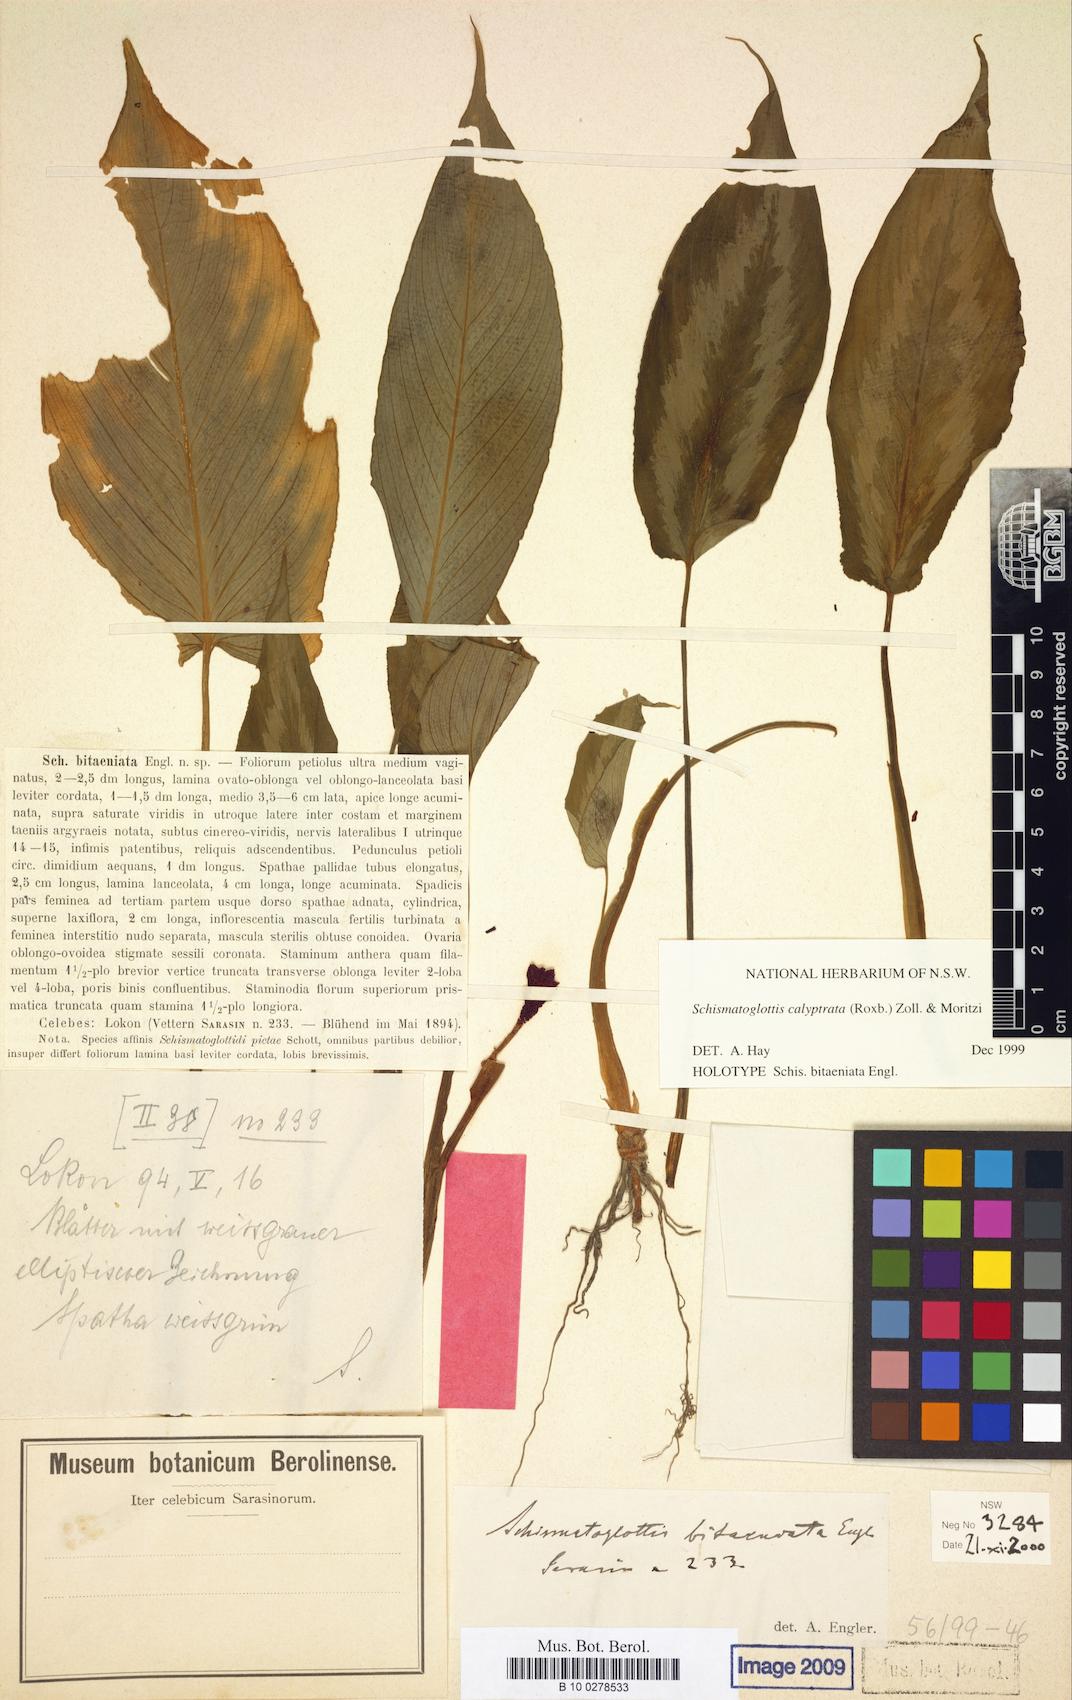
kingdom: Plantae
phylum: Tracheophyta
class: Liliopsida
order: Alismatales
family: Araceae
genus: Schismatoglottis
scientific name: Schismatoglottis calyptrata
